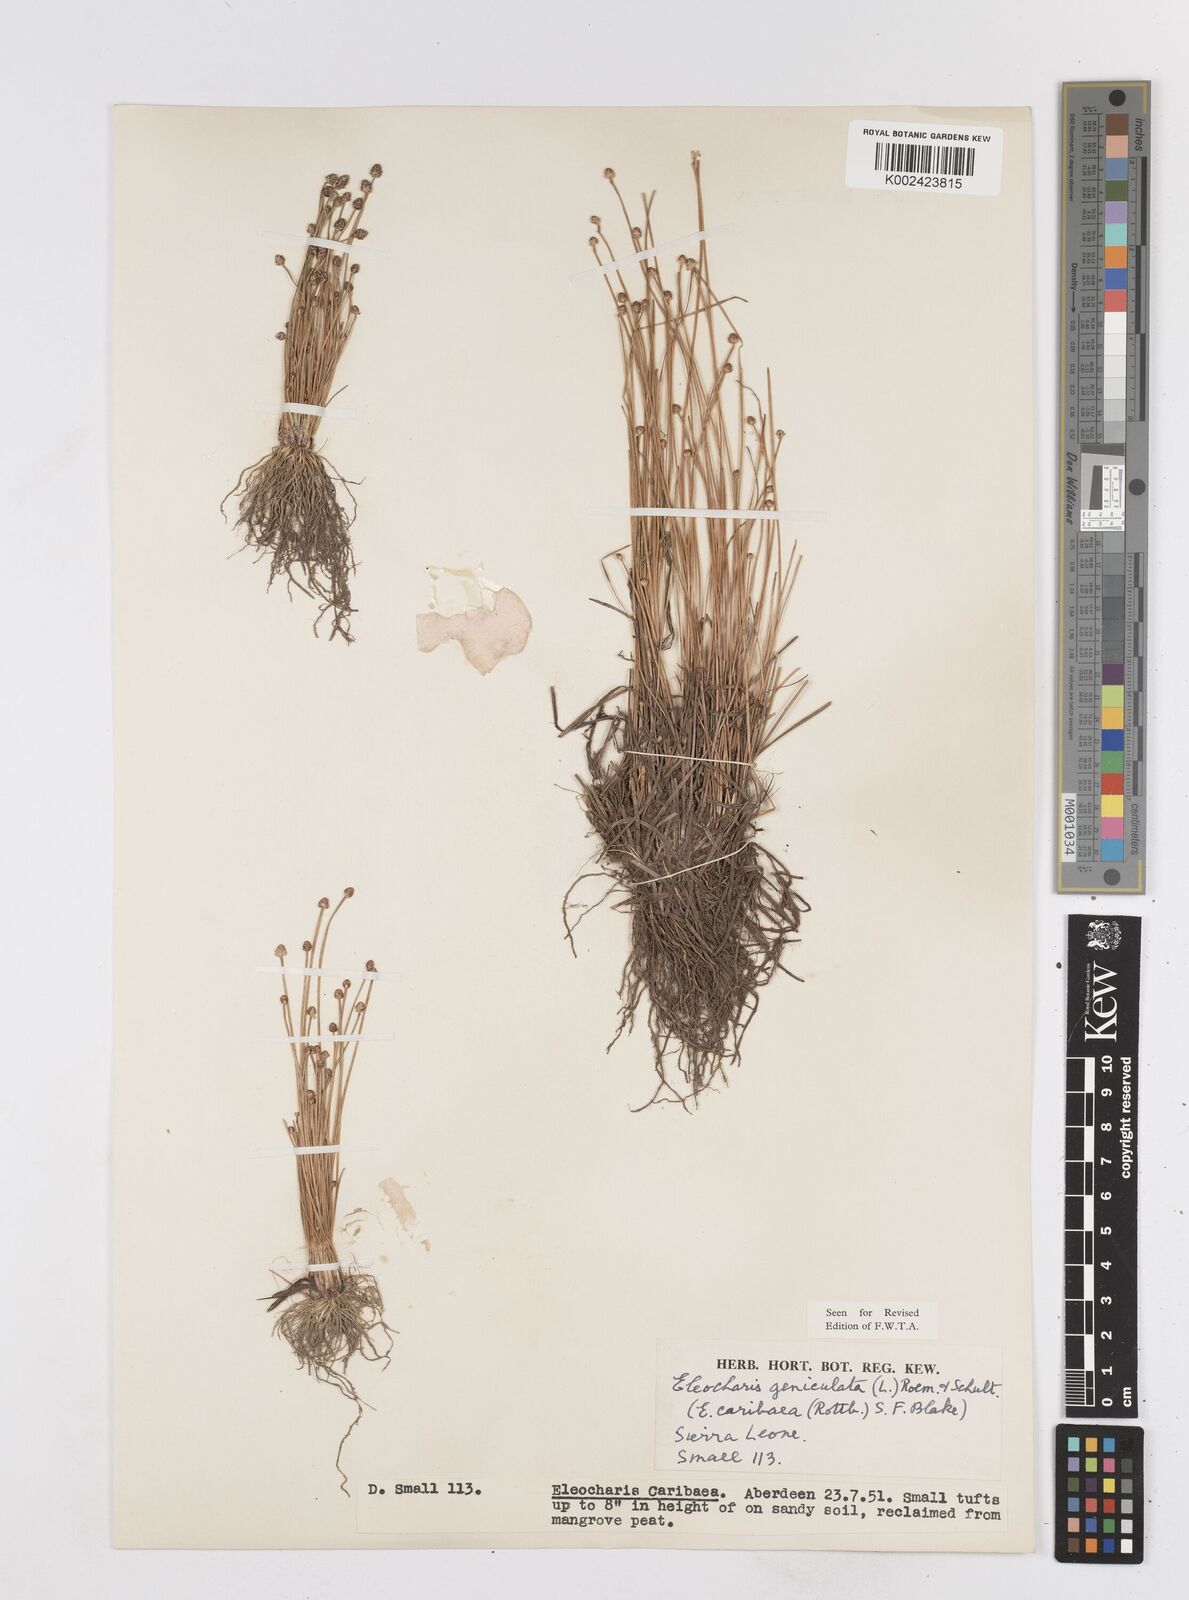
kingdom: Plantae
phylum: Tracheophyta
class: Liliopsida
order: Poales
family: Cyperaceae
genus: Eleocharis
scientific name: Eleocharis geniculata
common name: Canada spikesedge
